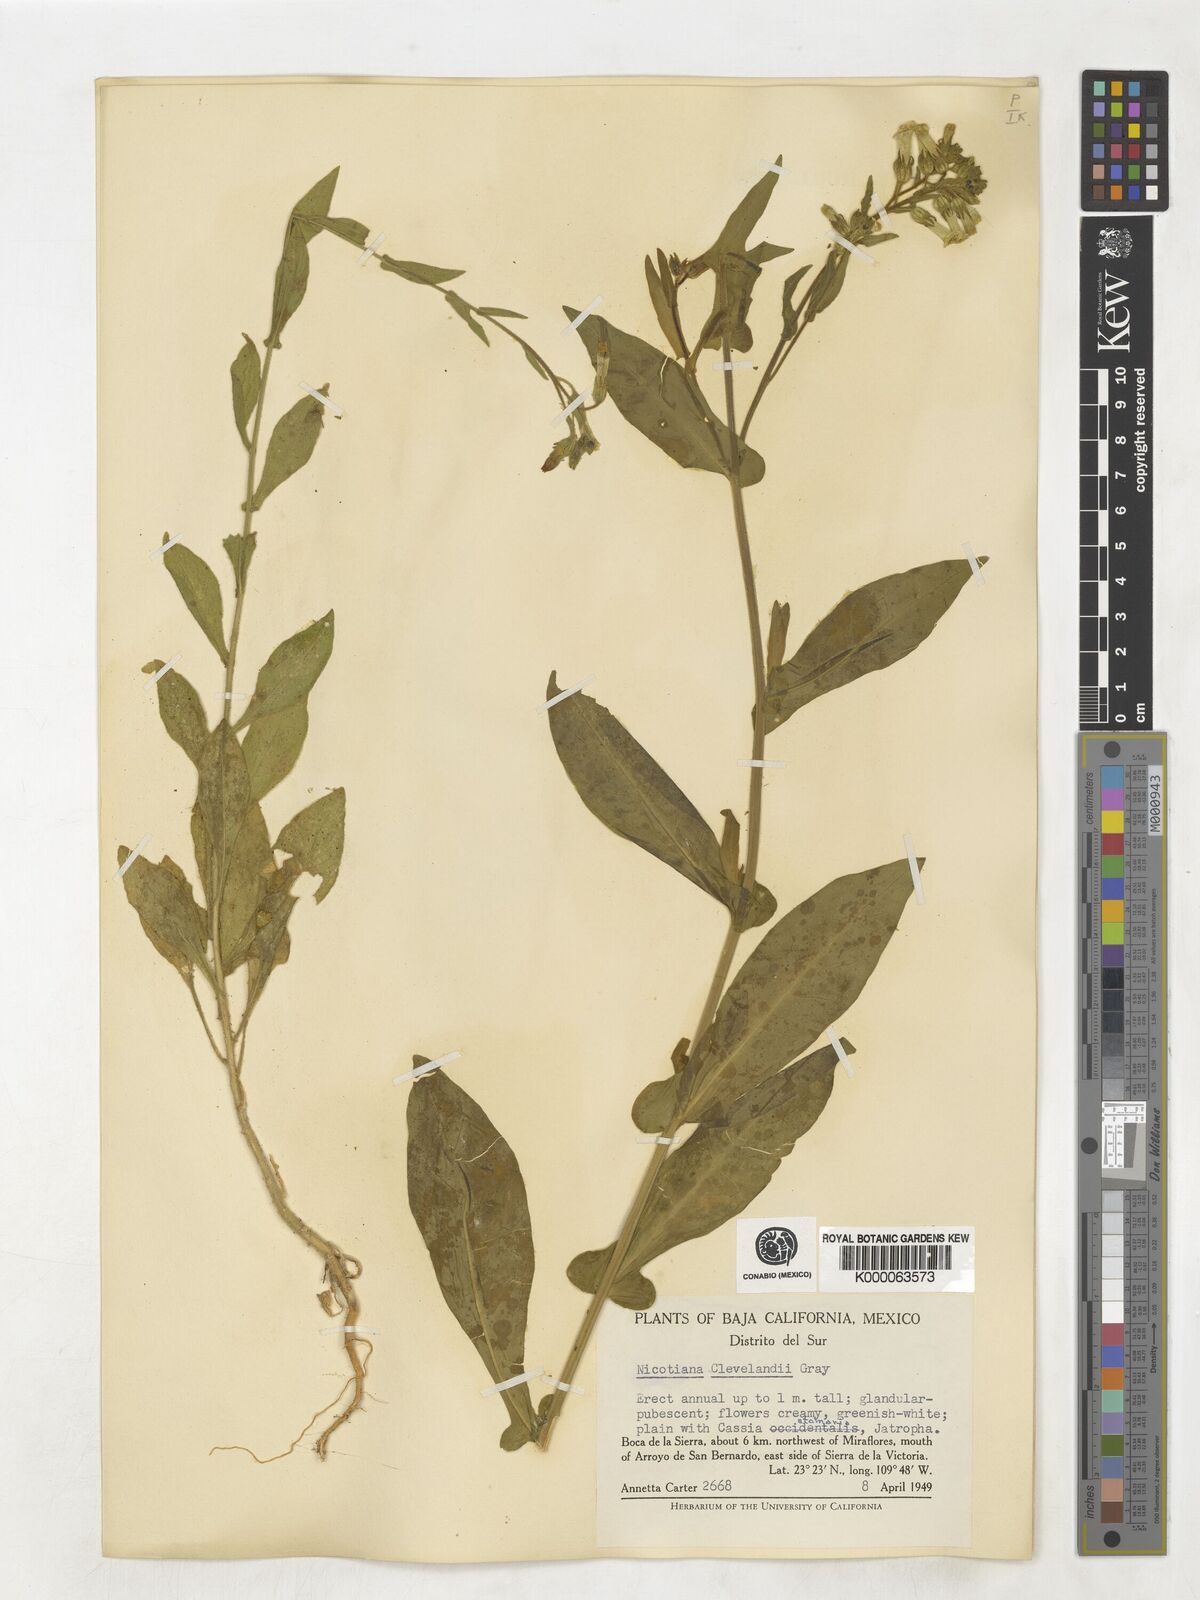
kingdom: Plantae
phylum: Tracheophyta
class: Magnoliopsida
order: Solanales
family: Solanaceae
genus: Nicotiana
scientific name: Nicotiana clevelandii
